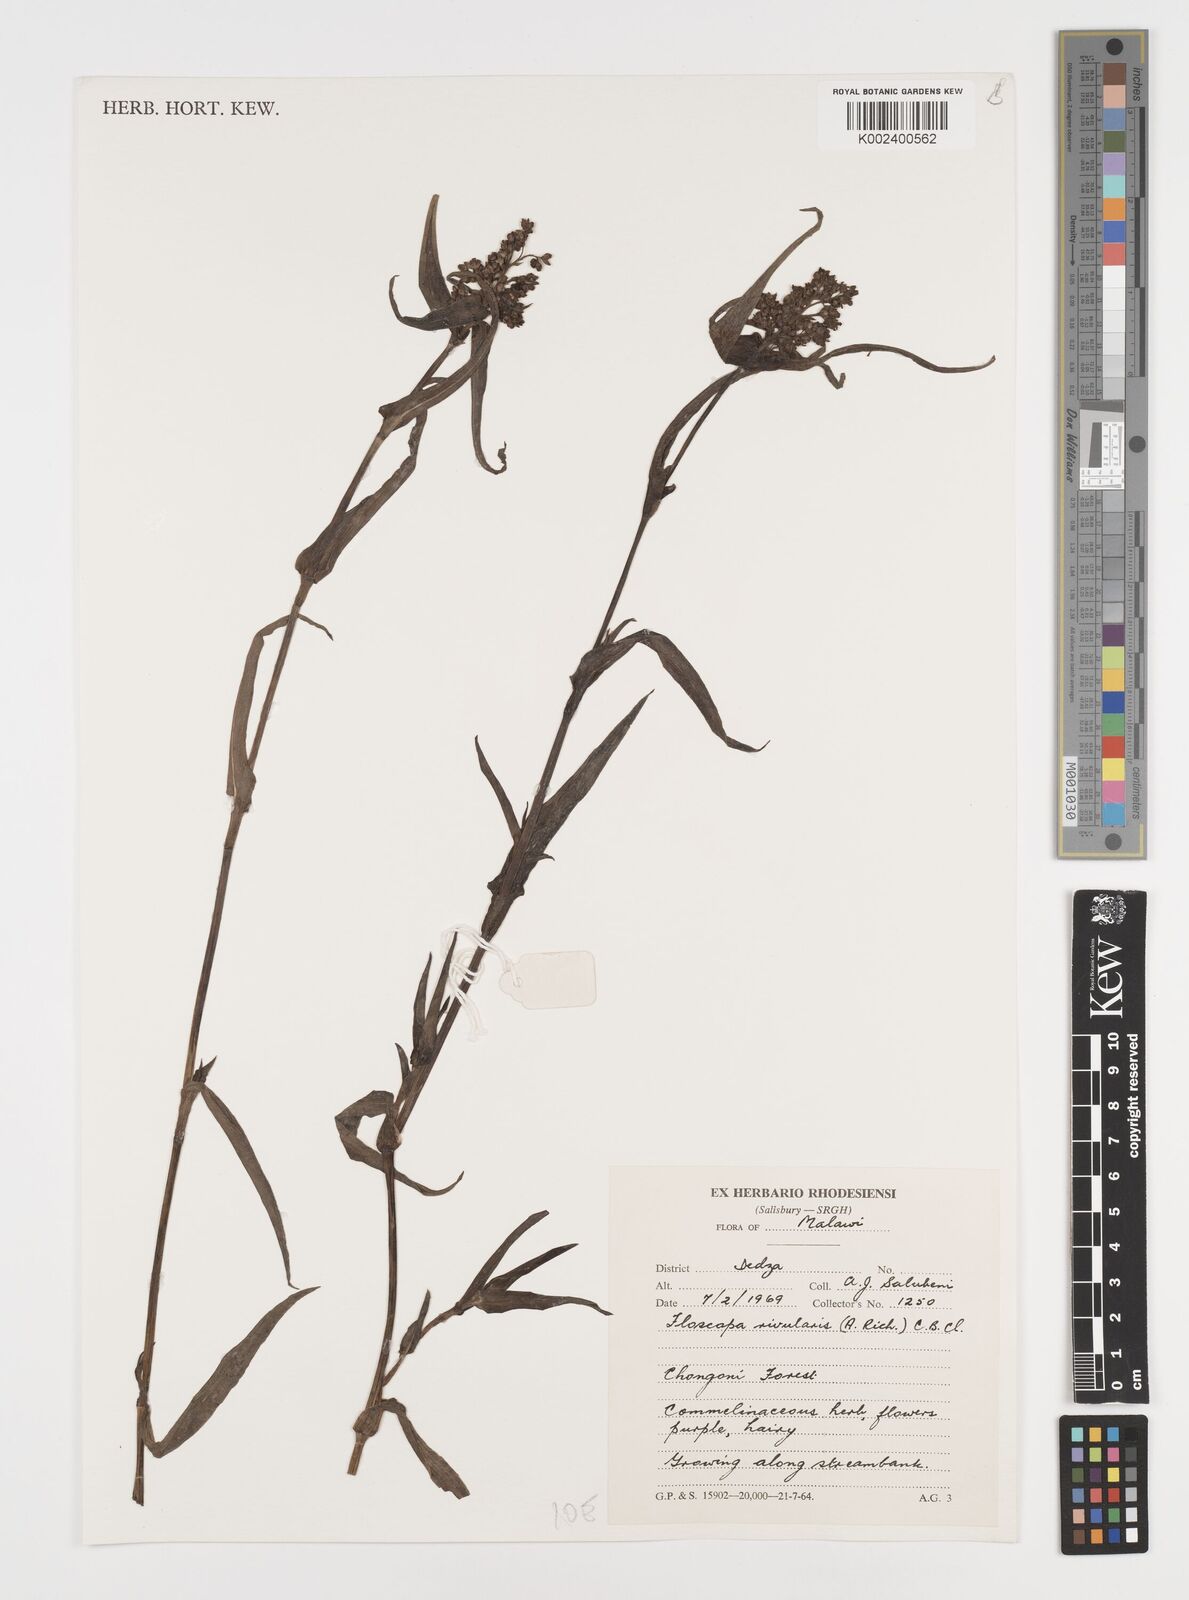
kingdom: Plantae
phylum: Tracheophyta
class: Liliopsida
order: Commelinales
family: Commelinaceae
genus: Floscopa
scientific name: Floscopa glomerata
